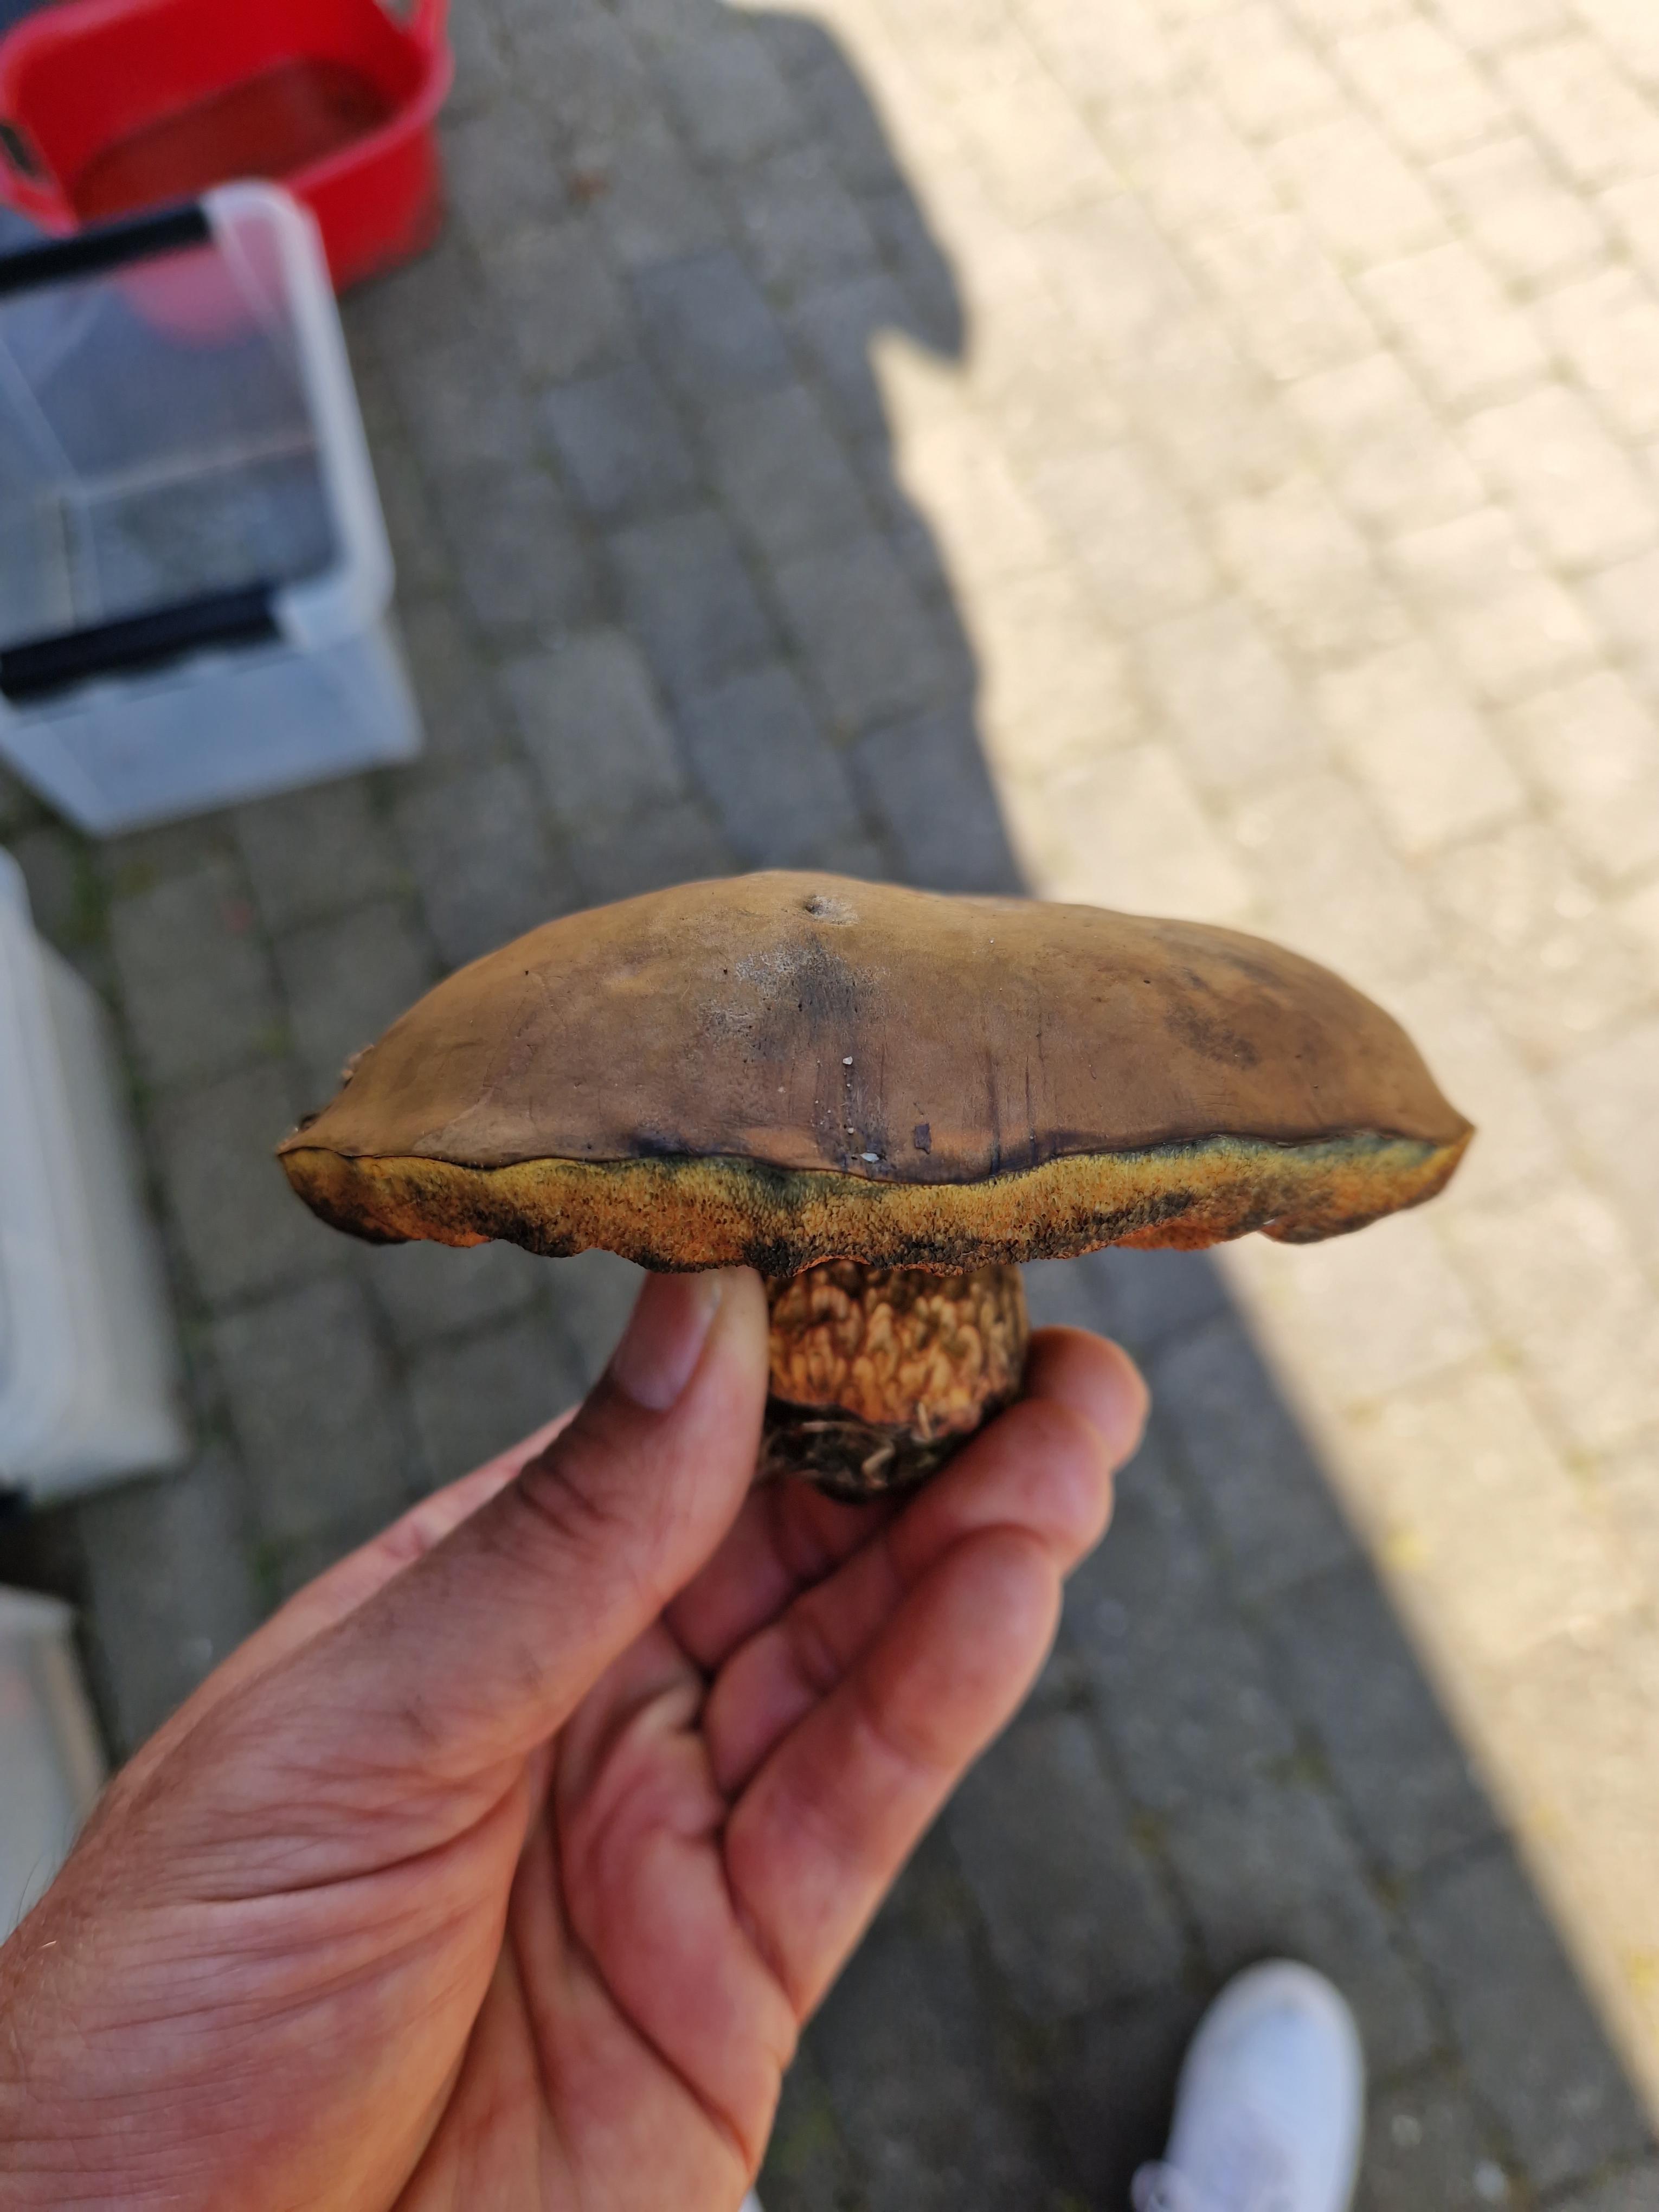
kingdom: Fungi
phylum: Basidiomycota
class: Agaricomycetes
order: Boletales
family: Boletaceae
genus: Suillellus
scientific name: Suillellus luridus
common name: netstokket indigorørhat
